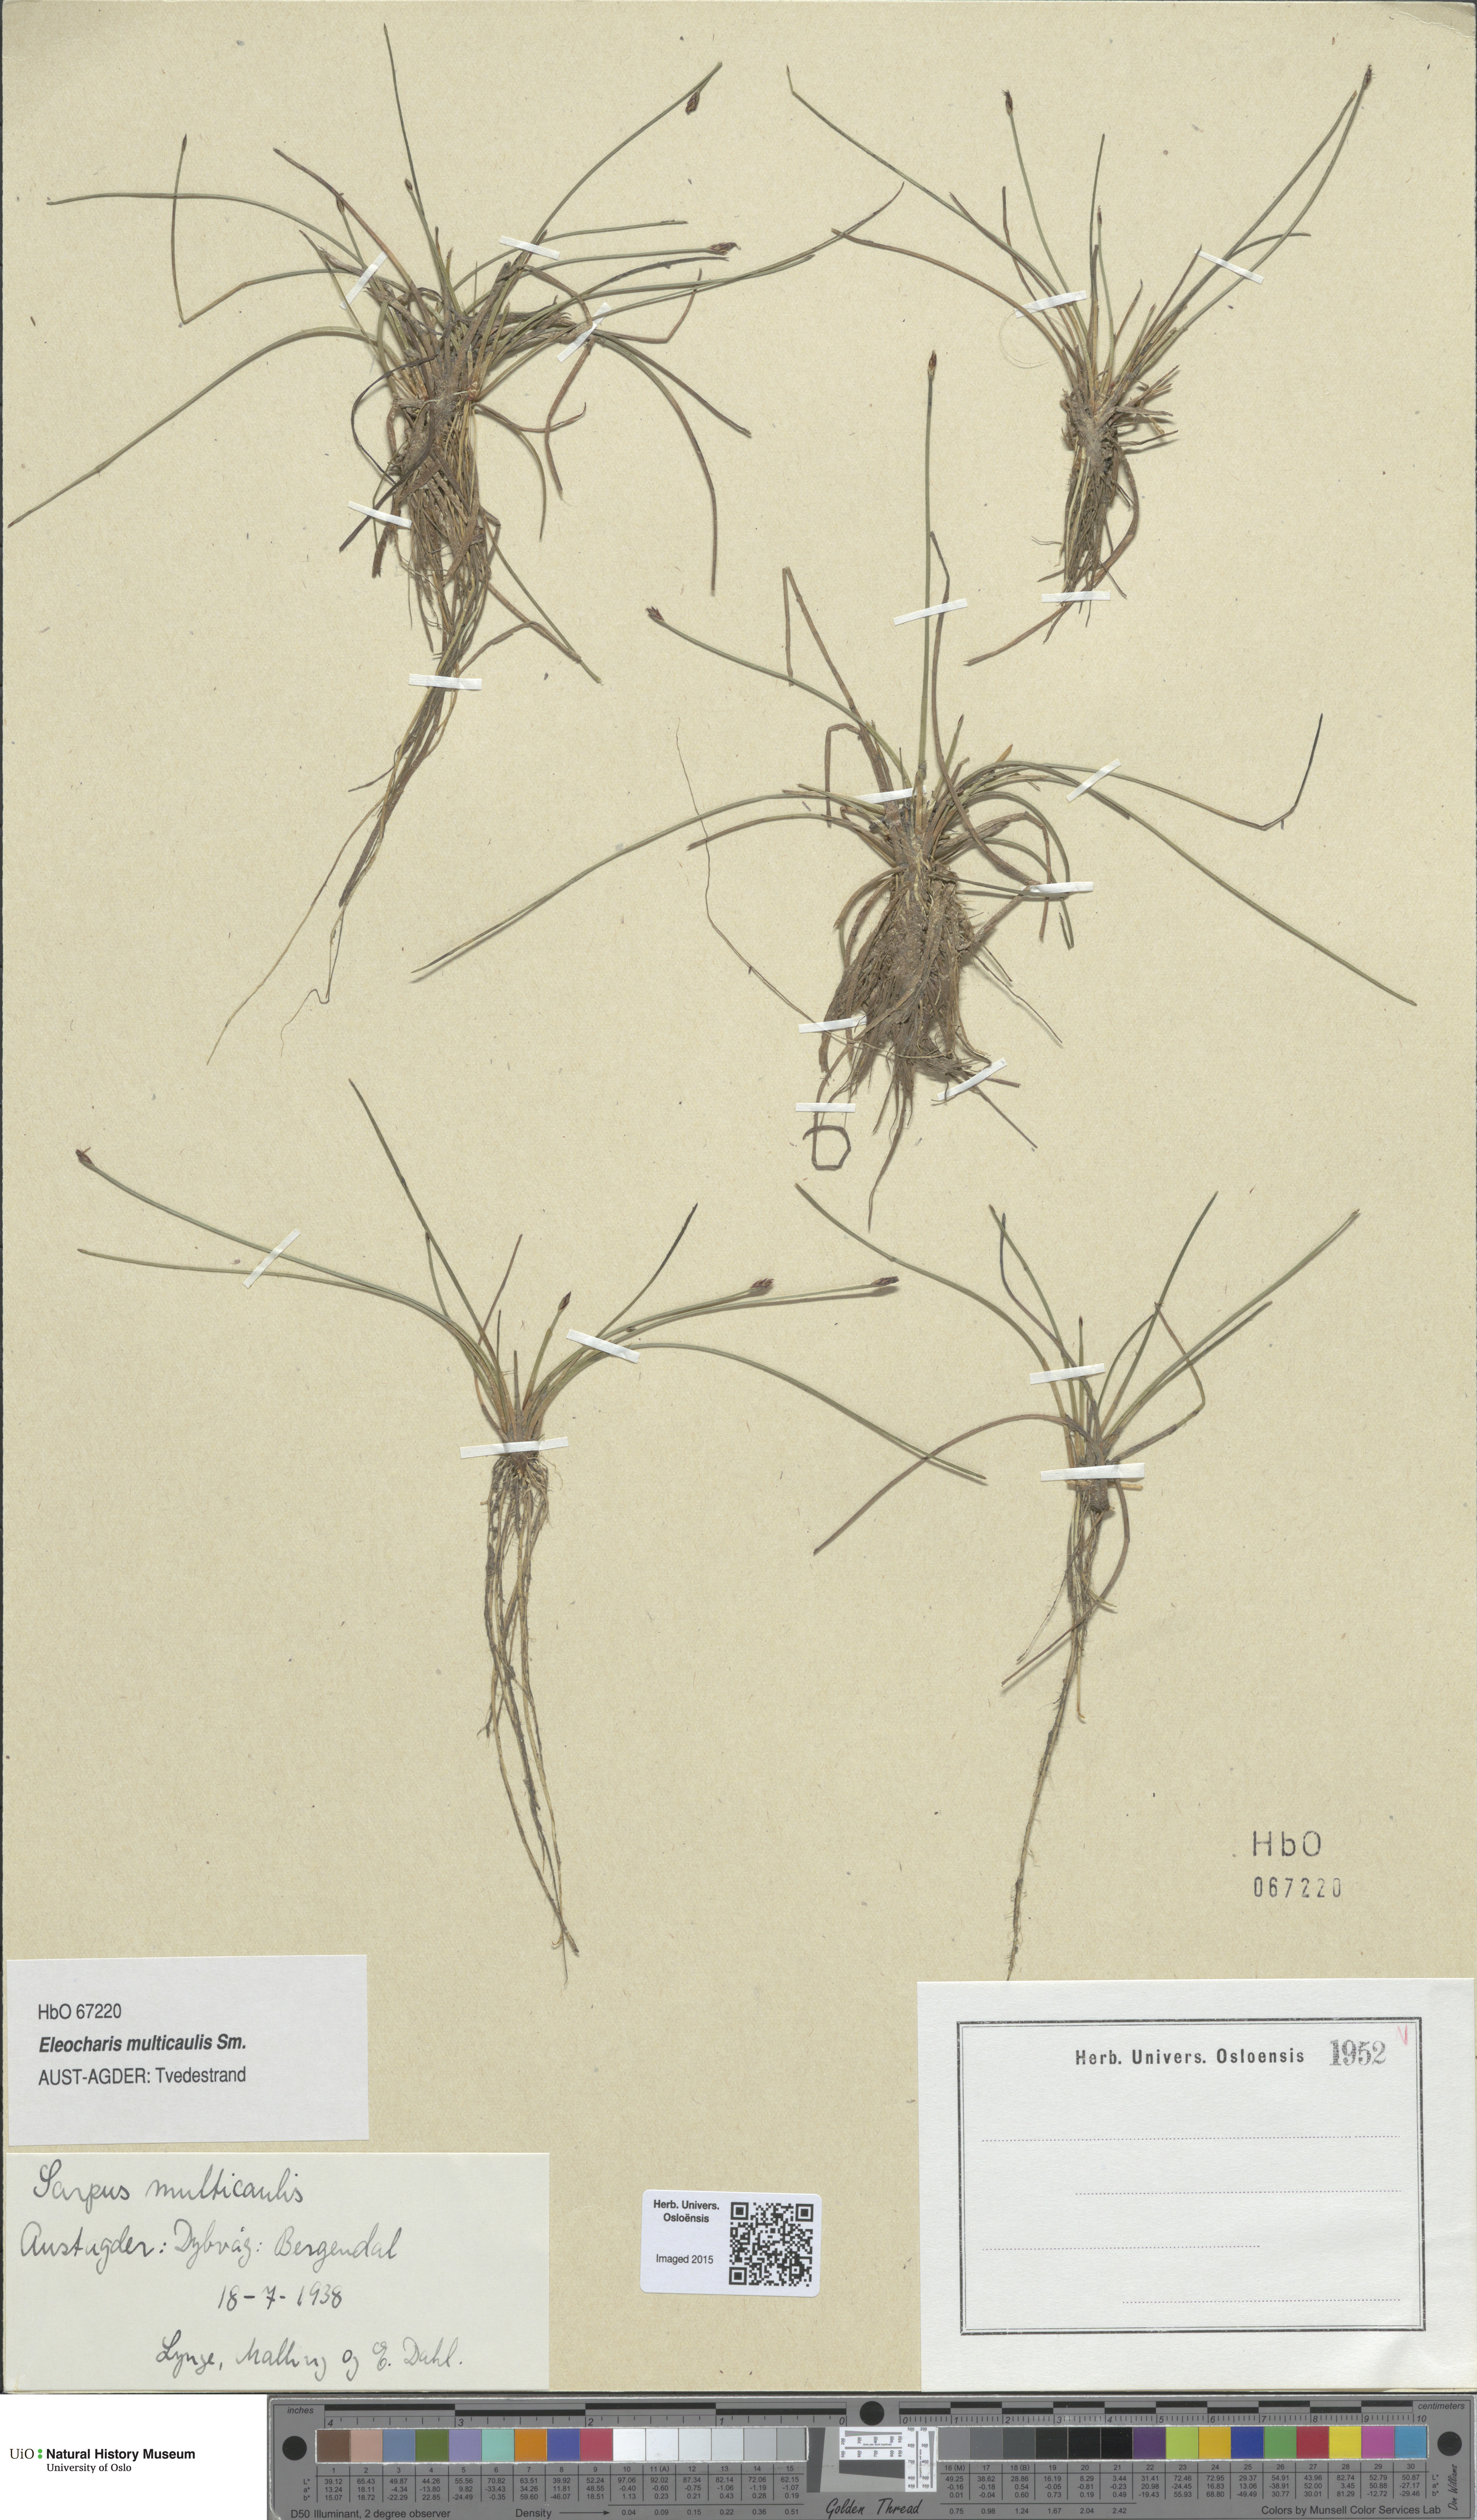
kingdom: Plantae
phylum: Tracheophyta
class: Liliopsida
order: Poales
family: Cyperaceae
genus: Eleocharis
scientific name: Eleocharis multicaulis
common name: Many-stalked spike-rush
